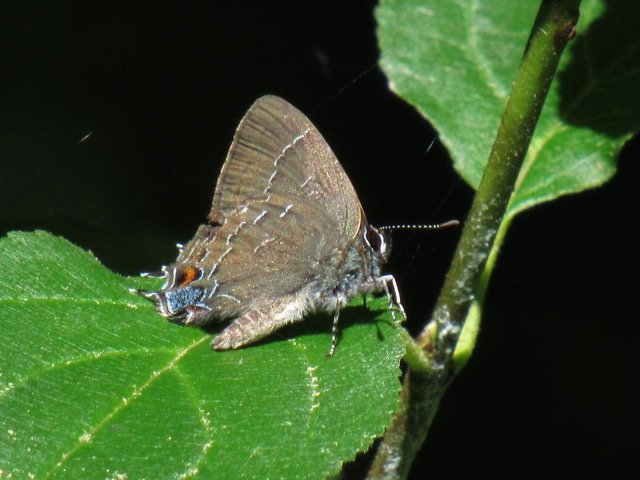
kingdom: Animalia
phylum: Arthropoda
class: Insecta
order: Lepidoptera
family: Lycaenidae
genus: Satyrium
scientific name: Satyrium calanus
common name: Banded Hairstreak
